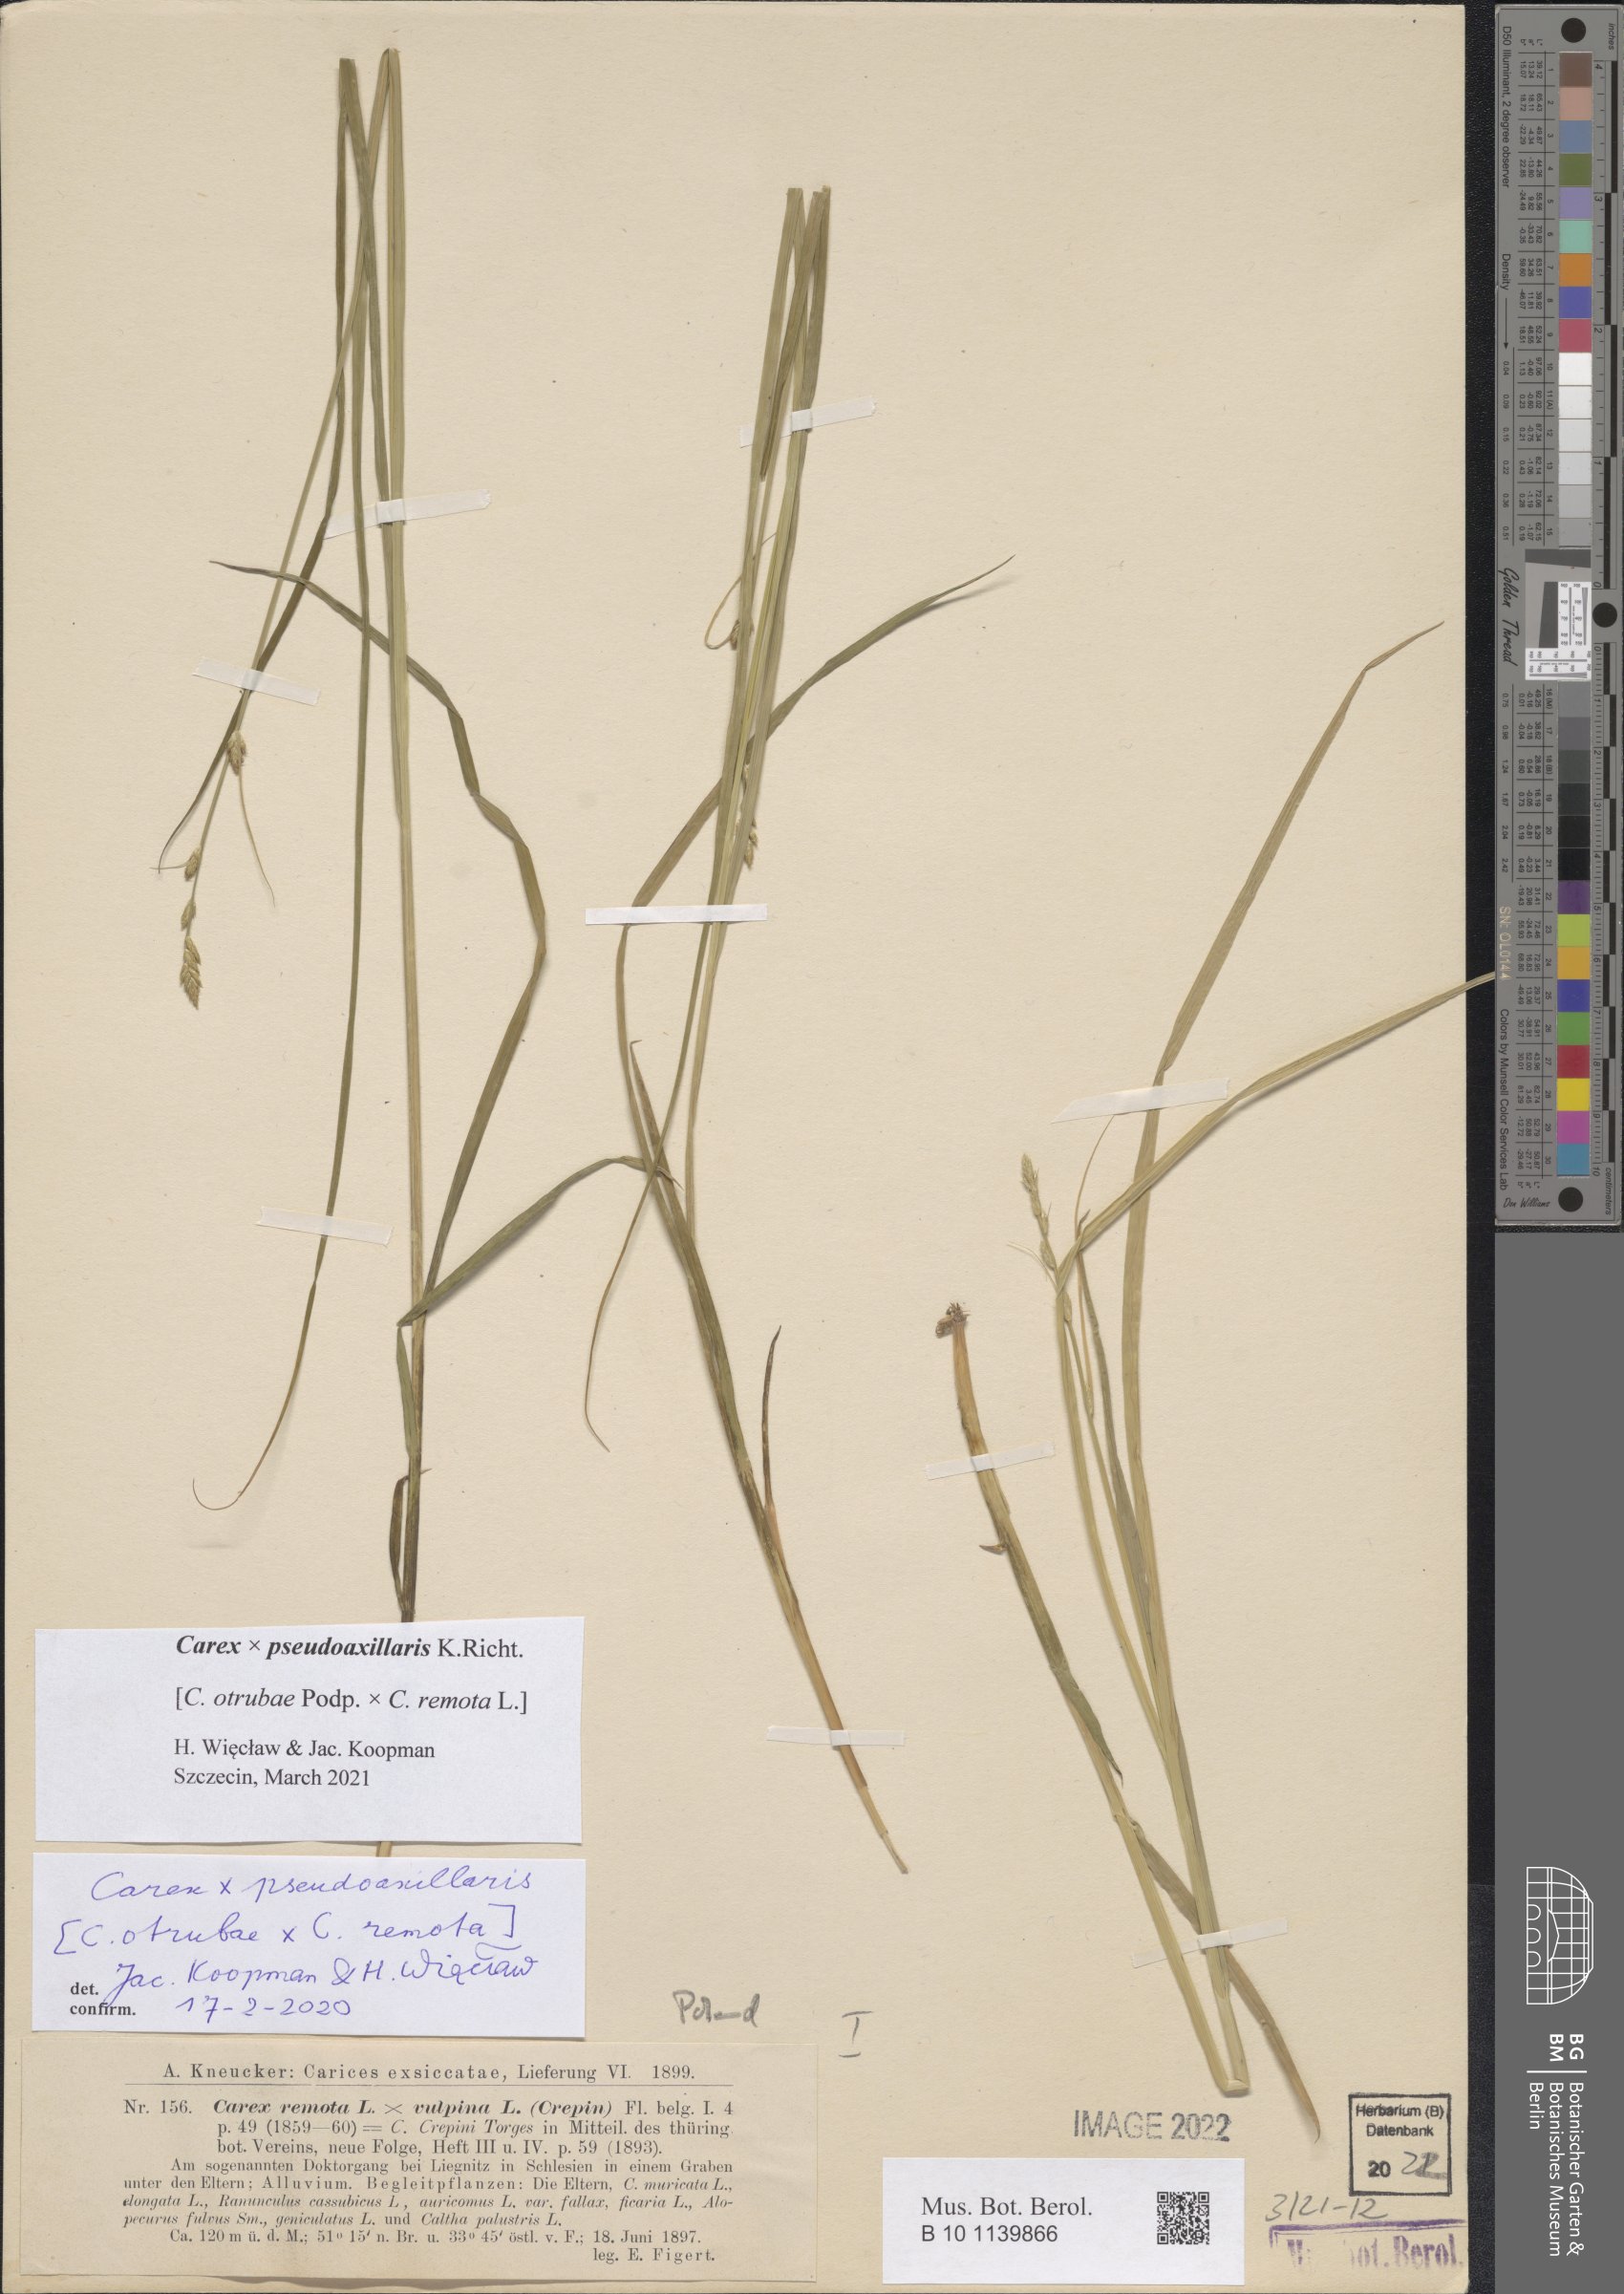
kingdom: Plantae
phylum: Tracheophyta
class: Liliopsida
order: Poales
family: Cyperaceae
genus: Carex
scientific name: Carex pseudoaxillaris
